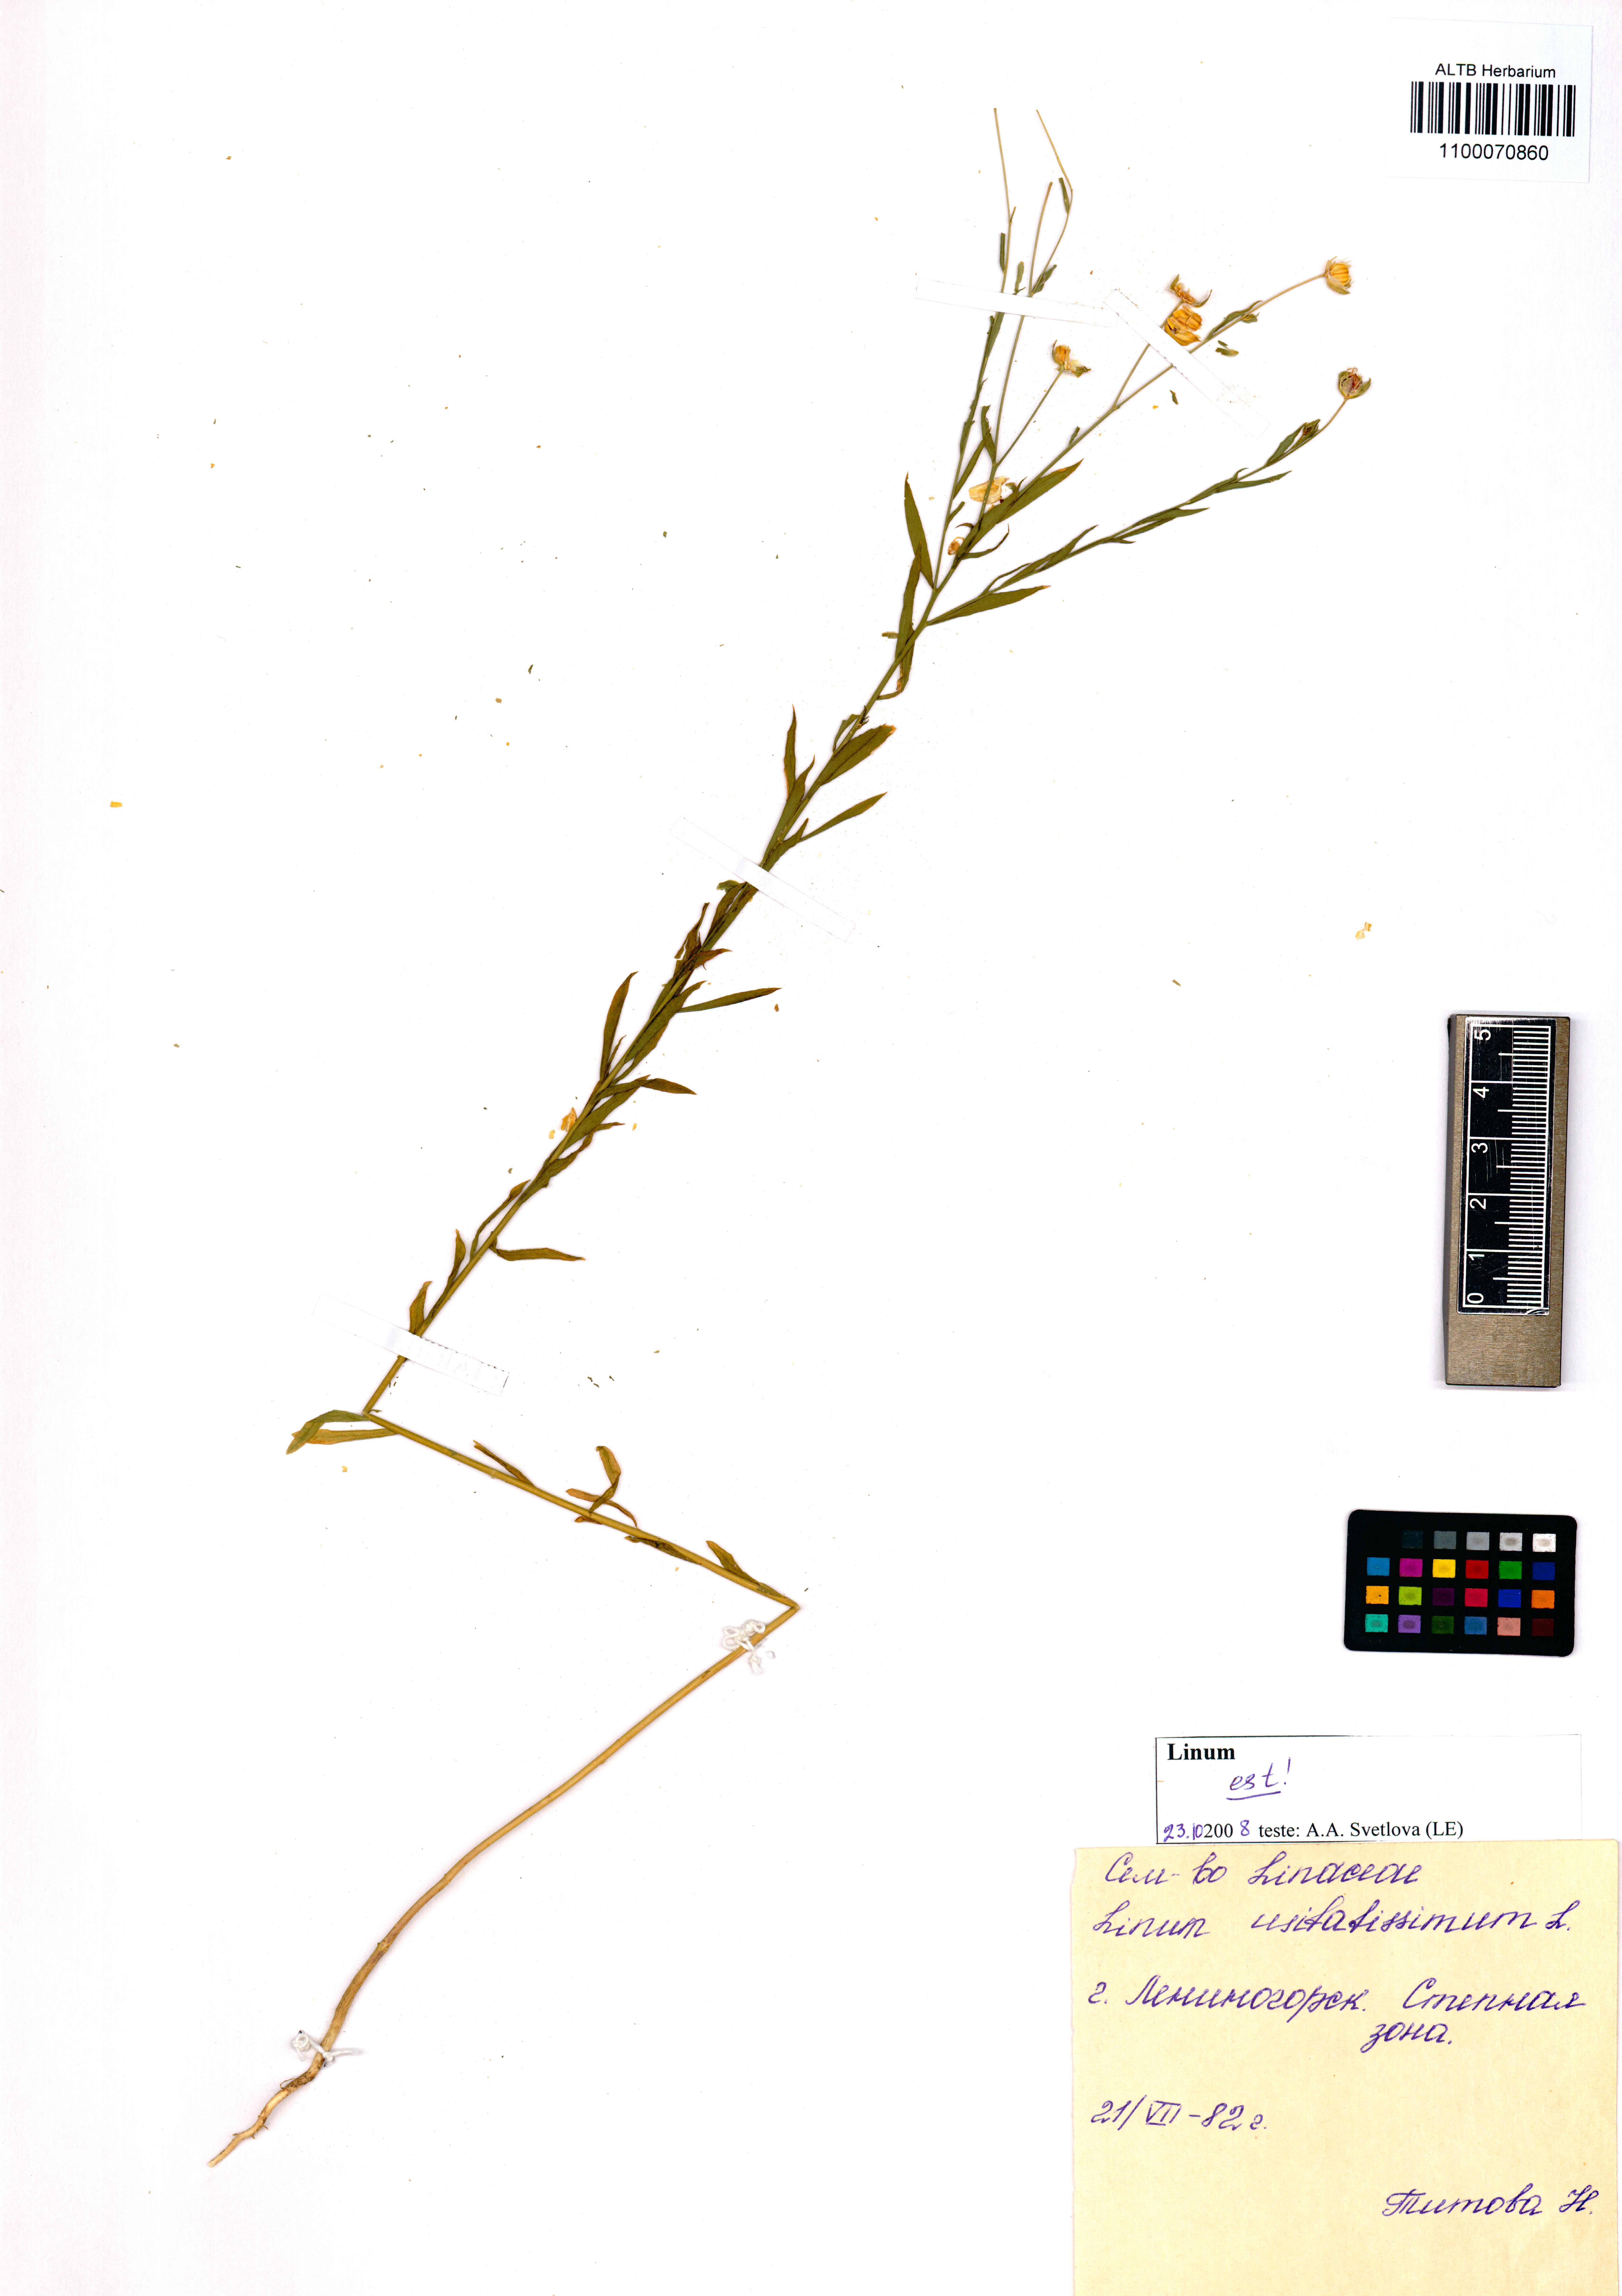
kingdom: Plantae
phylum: Tracheophyta
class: Magnoliopsida
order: Malpighiales
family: Linaceae
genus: Linum
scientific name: Linum usitatissimum
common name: Flax
